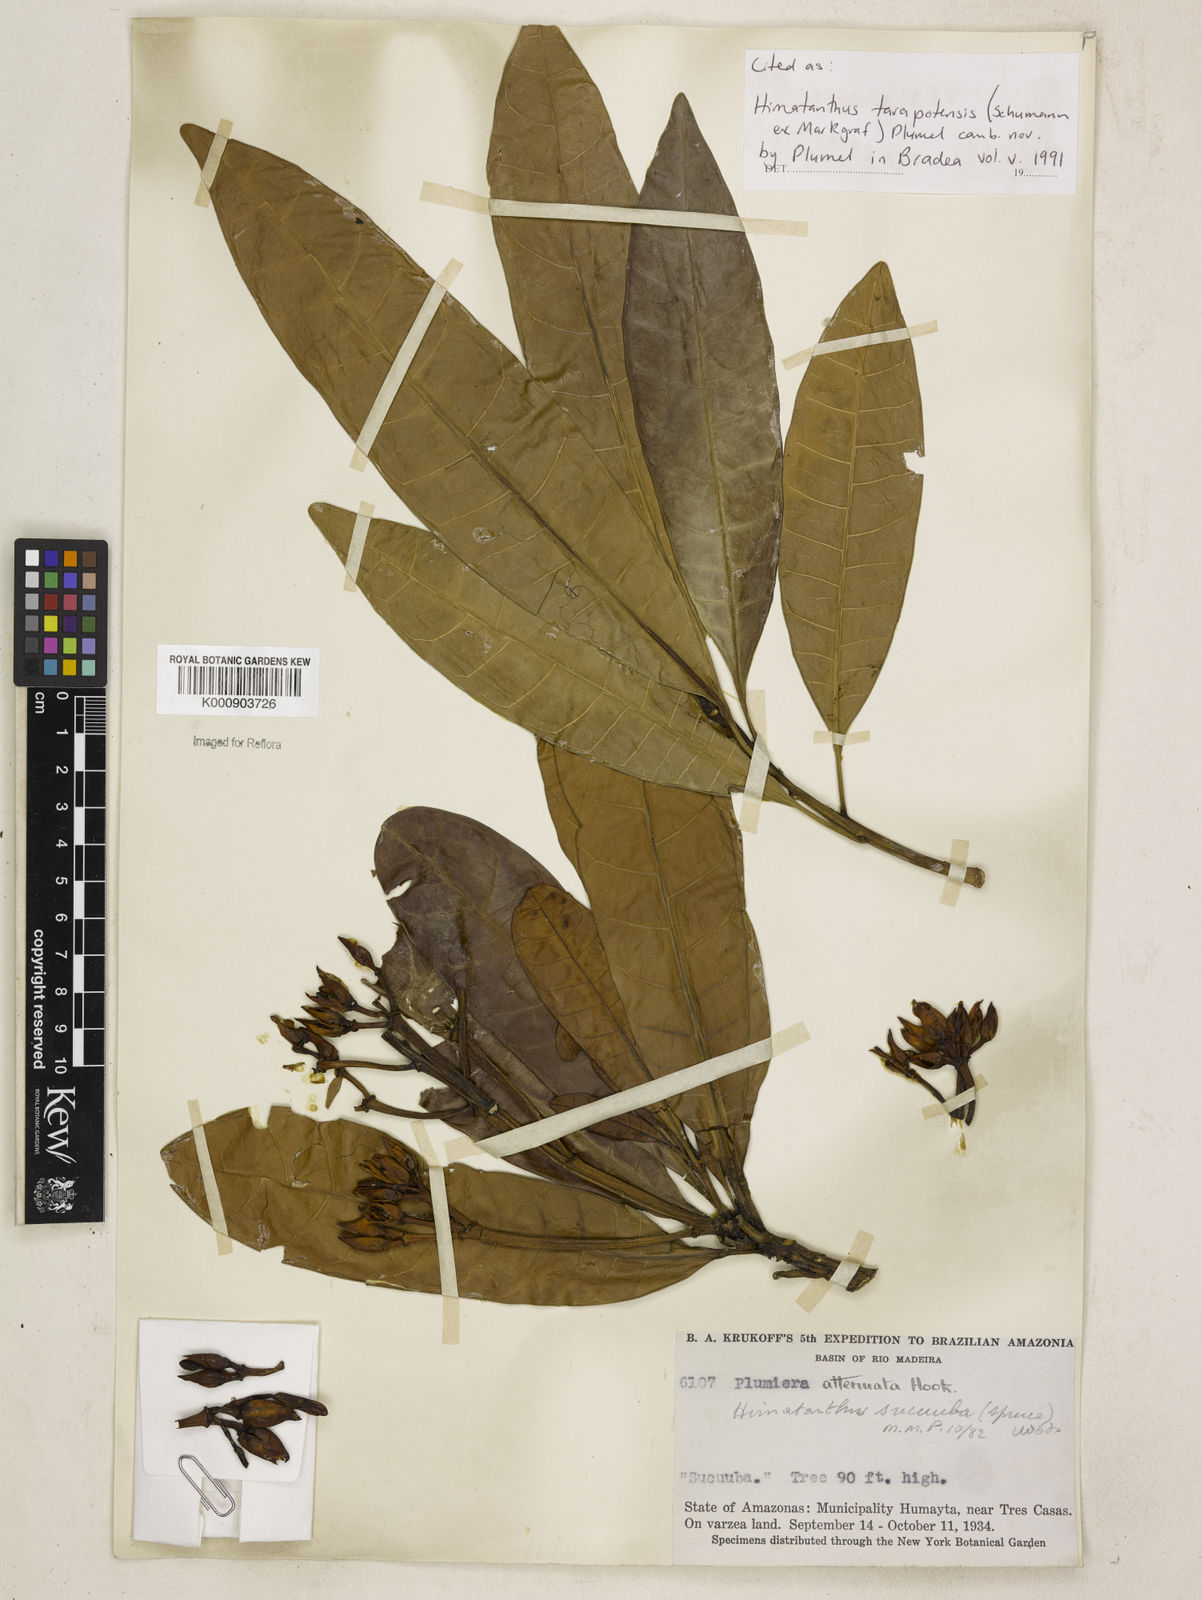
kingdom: Plantae
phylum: Tracheophyta
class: Magnoliopsida
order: Gentianales
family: Apocynaceae
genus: Himatanthus
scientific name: Himatanthus tarapotensis
